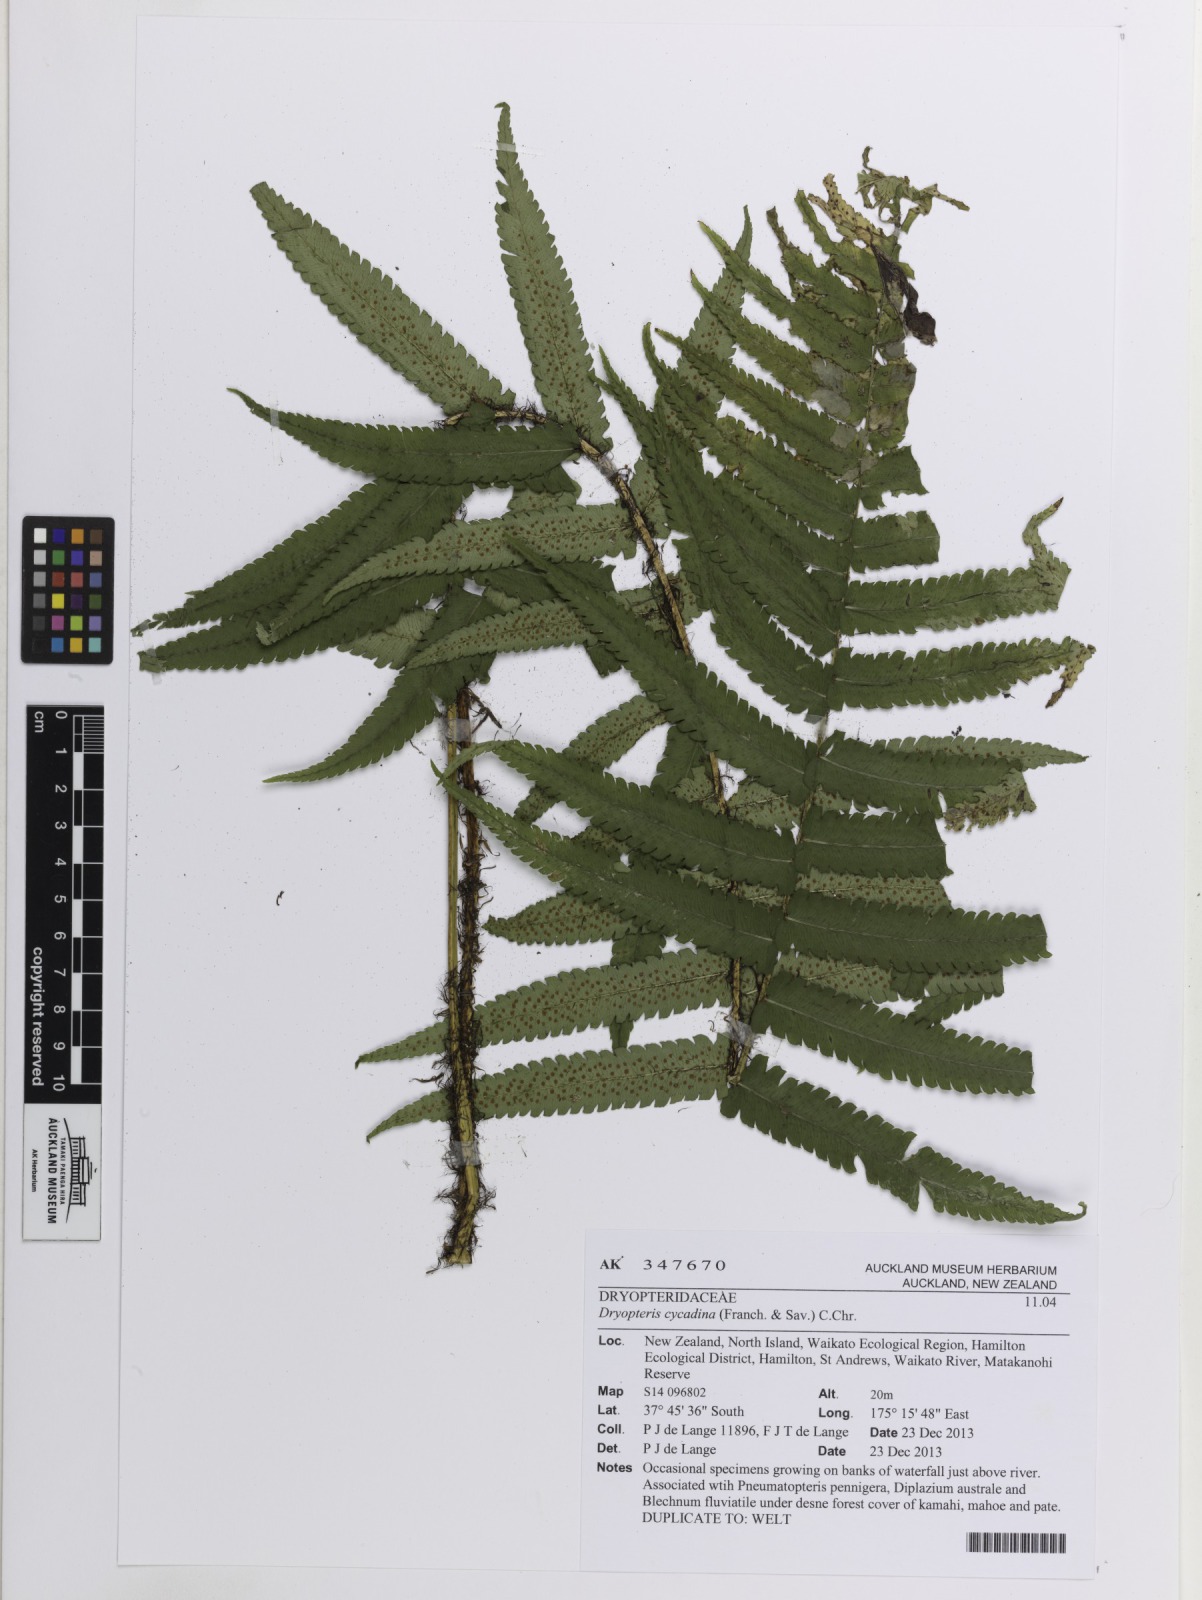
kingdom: Plantae
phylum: Tracheophyta
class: Polypodiopsida
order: Polypodiales
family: Dryopteridaceae
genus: Dryopteris
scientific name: Dryopteris cycadina
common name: Shaggy wood fern
